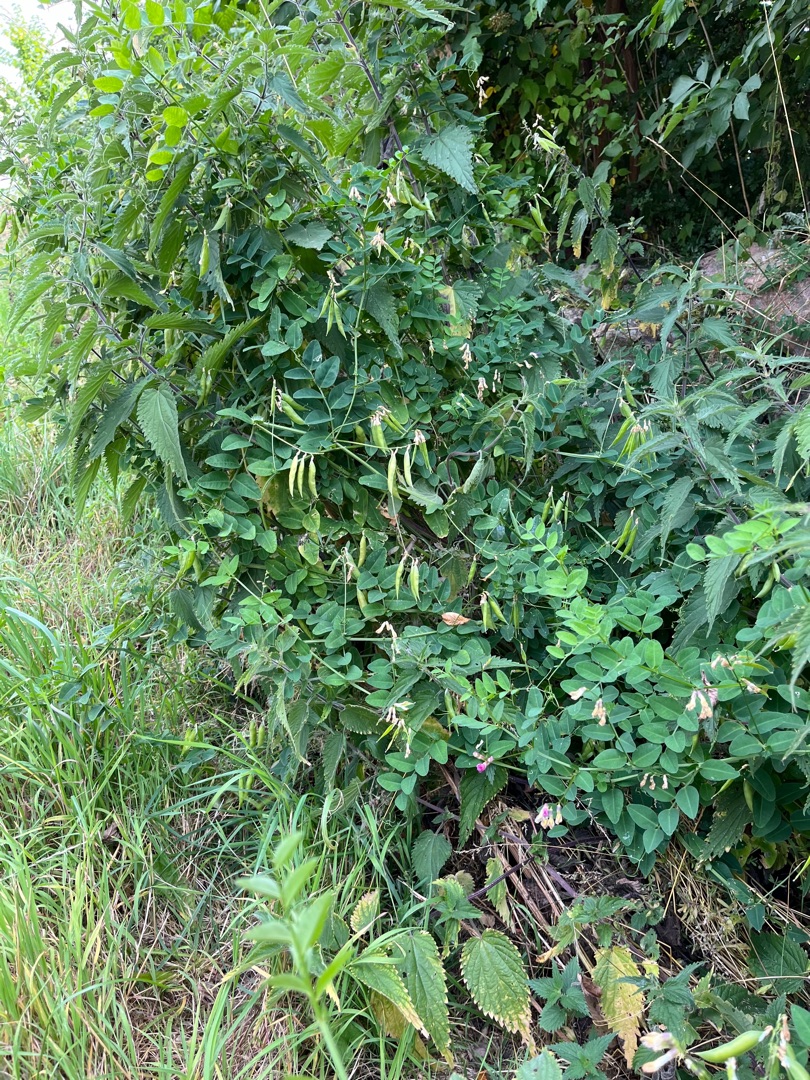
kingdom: Plantae
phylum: Tracheophyta
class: Magnoliopsida
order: Fabales
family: Fabaceae
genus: Vicia
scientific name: Vicia dumetorum
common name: Krat-vikke
